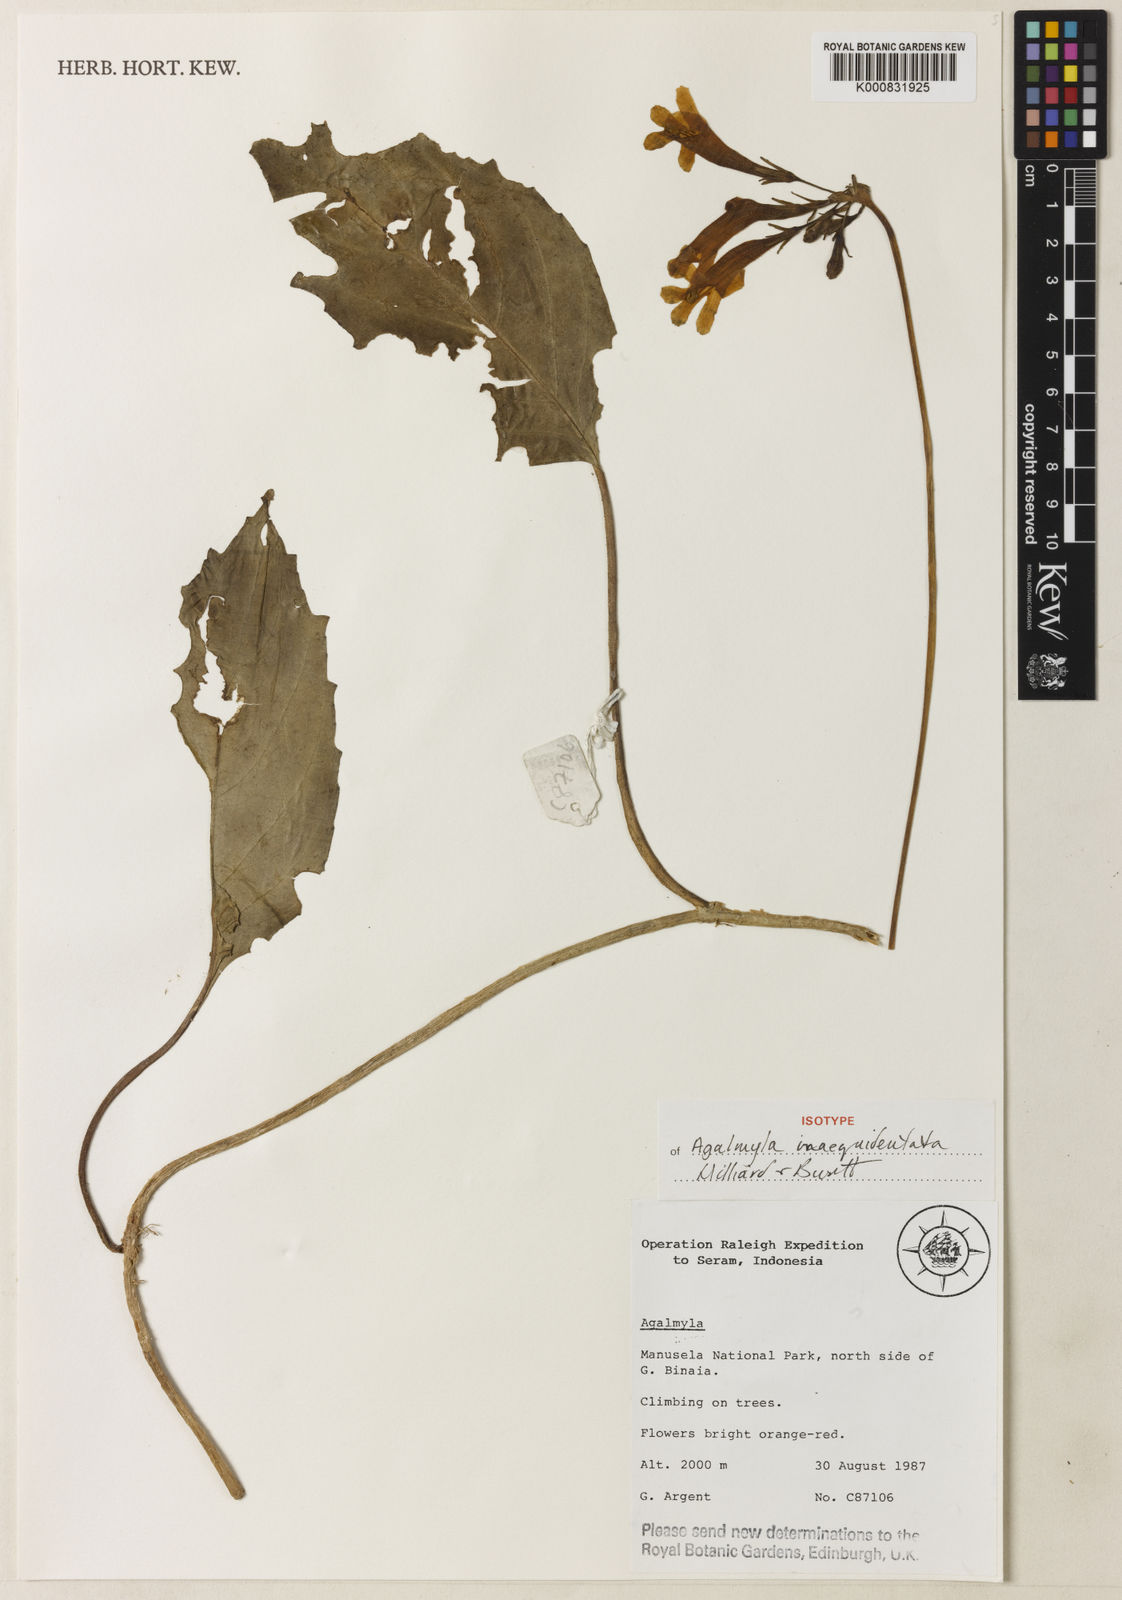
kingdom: Plantae
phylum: Tracheophyta
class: Magnoliopsida
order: Lamiales
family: Gesneriaceae
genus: Agalmyla
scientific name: Agalmyla inaequidentata
